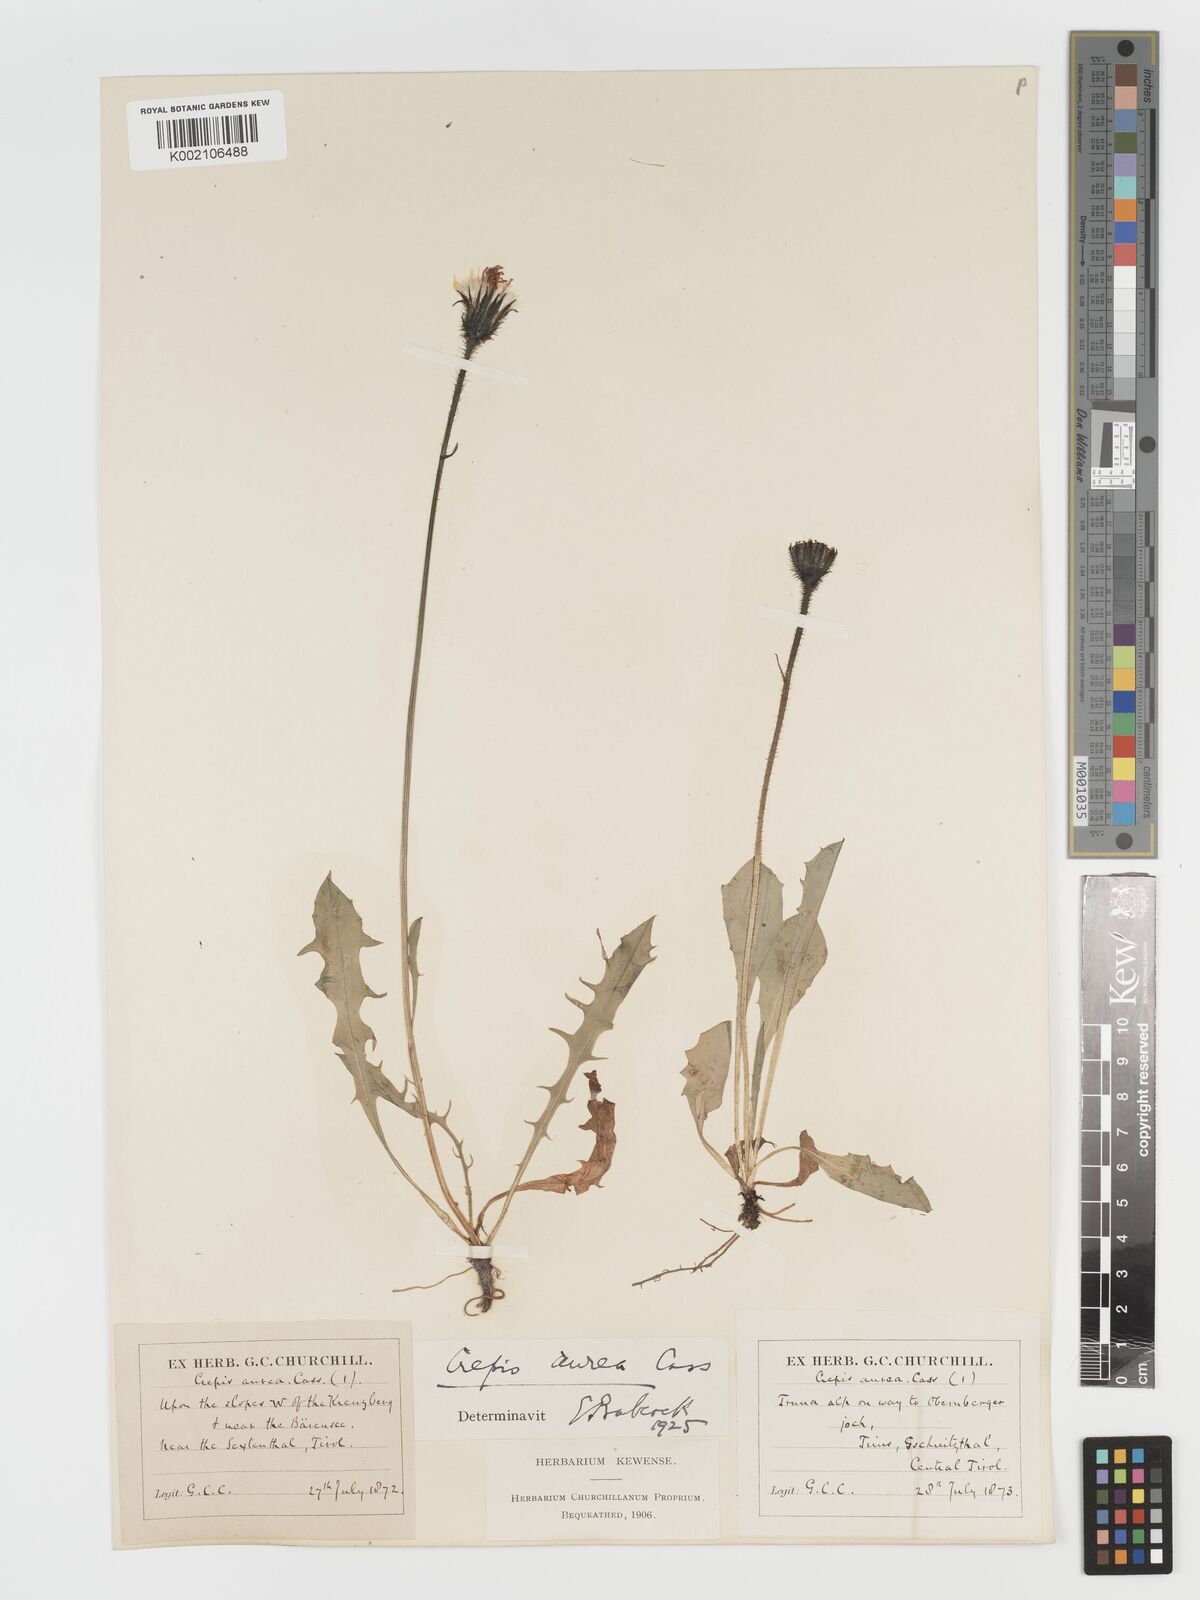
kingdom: Plantae
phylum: Tracheophyta
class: Magnoliopsida
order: Asterales
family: Asteraceae
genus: Crepis
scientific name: Crepis aurea
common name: Golden hawk's-beard
